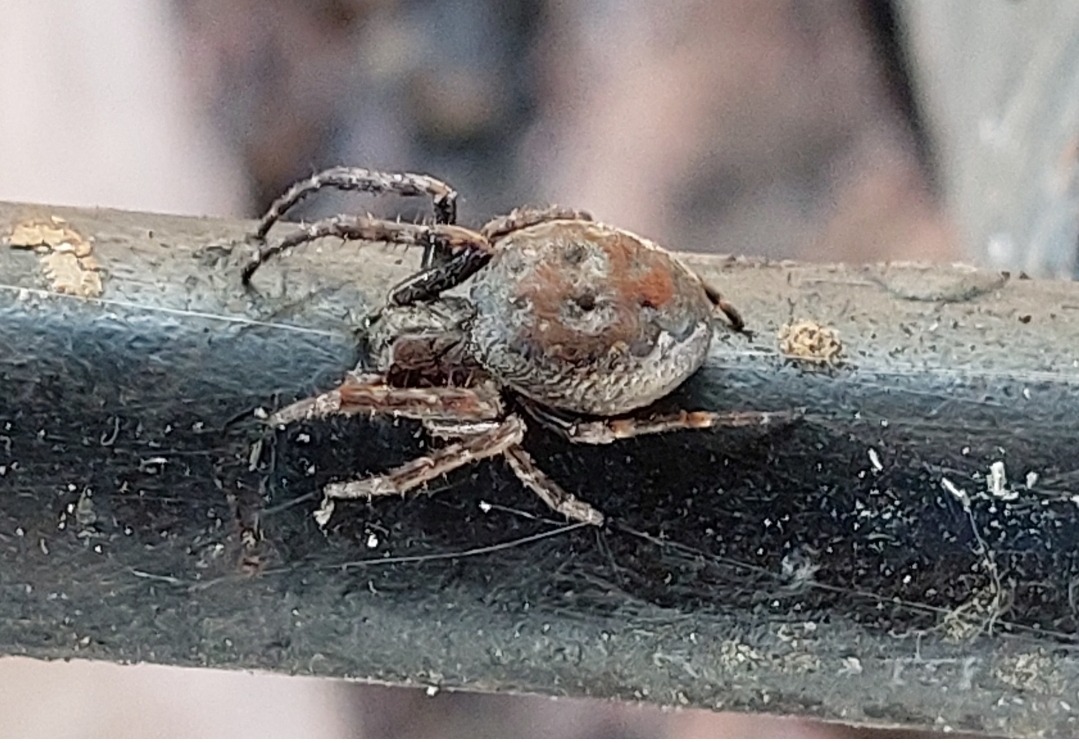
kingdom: Animalia
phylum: Arthropoda
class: Arachnida
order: Araneae
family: Araneidae
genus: Nuctenea
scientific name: Nuctenea umbratica
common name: Flad hjulspinder
